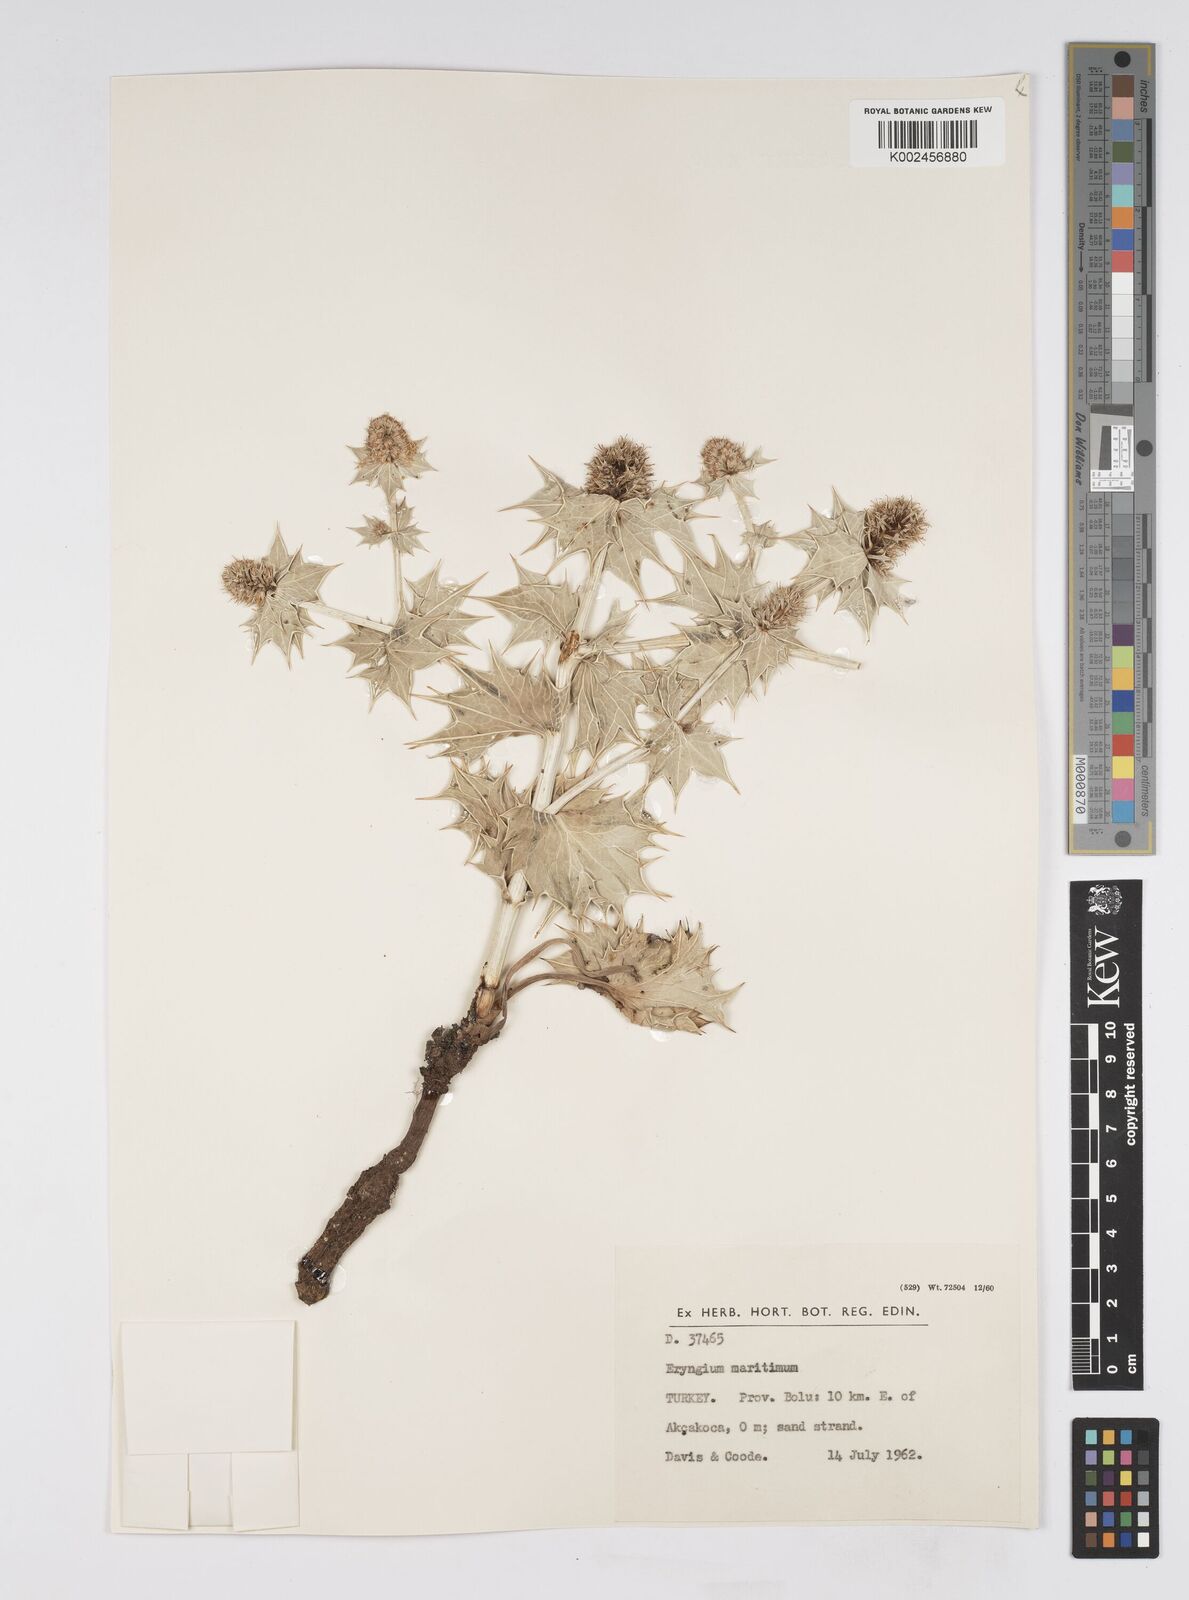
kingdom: Plantae
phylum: Tracheophyta
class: Magnoliopsida
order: Apiales
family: Apiaceae
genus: Eryngium
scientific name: Eryngium maritimum
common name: Sea-holly
